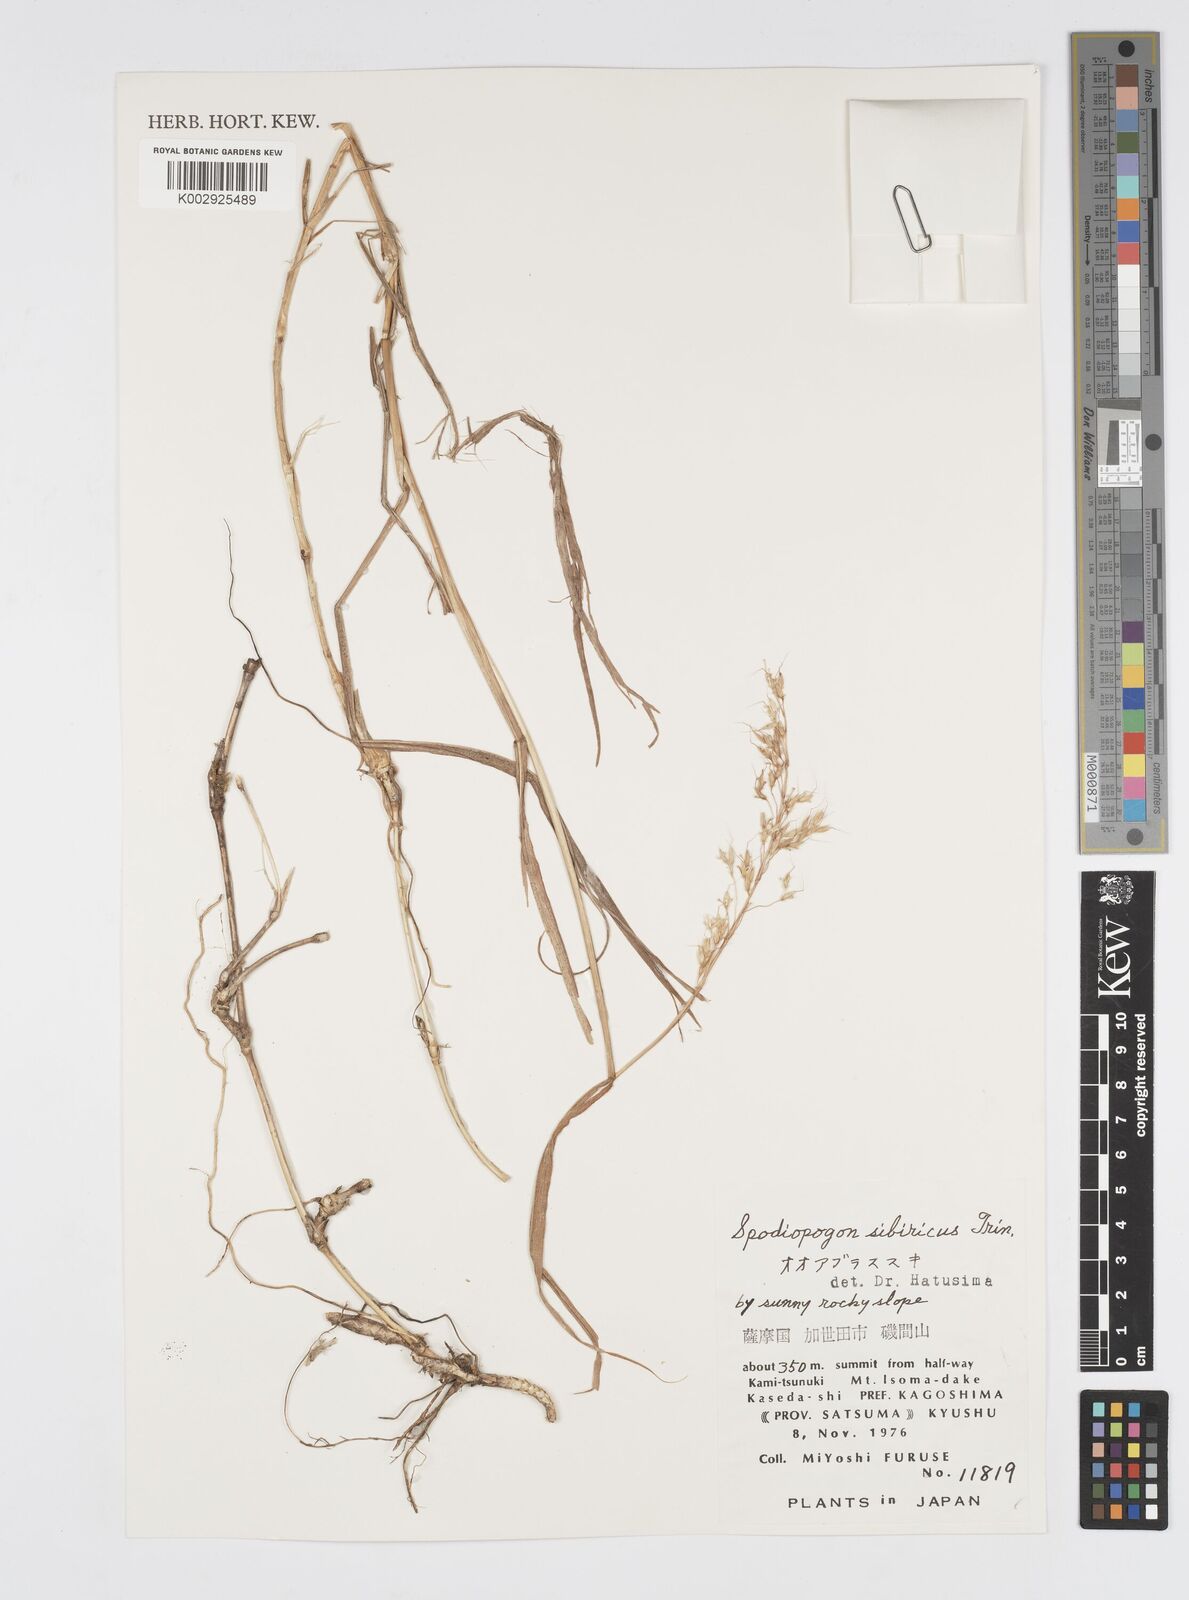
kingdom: Plantae
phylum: Tracheophyta
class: Liliopsida
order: Poales
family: Poaceae
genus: Spodiopogon
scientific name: Spodiopogon sibiricus
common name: Siberian graybeard
